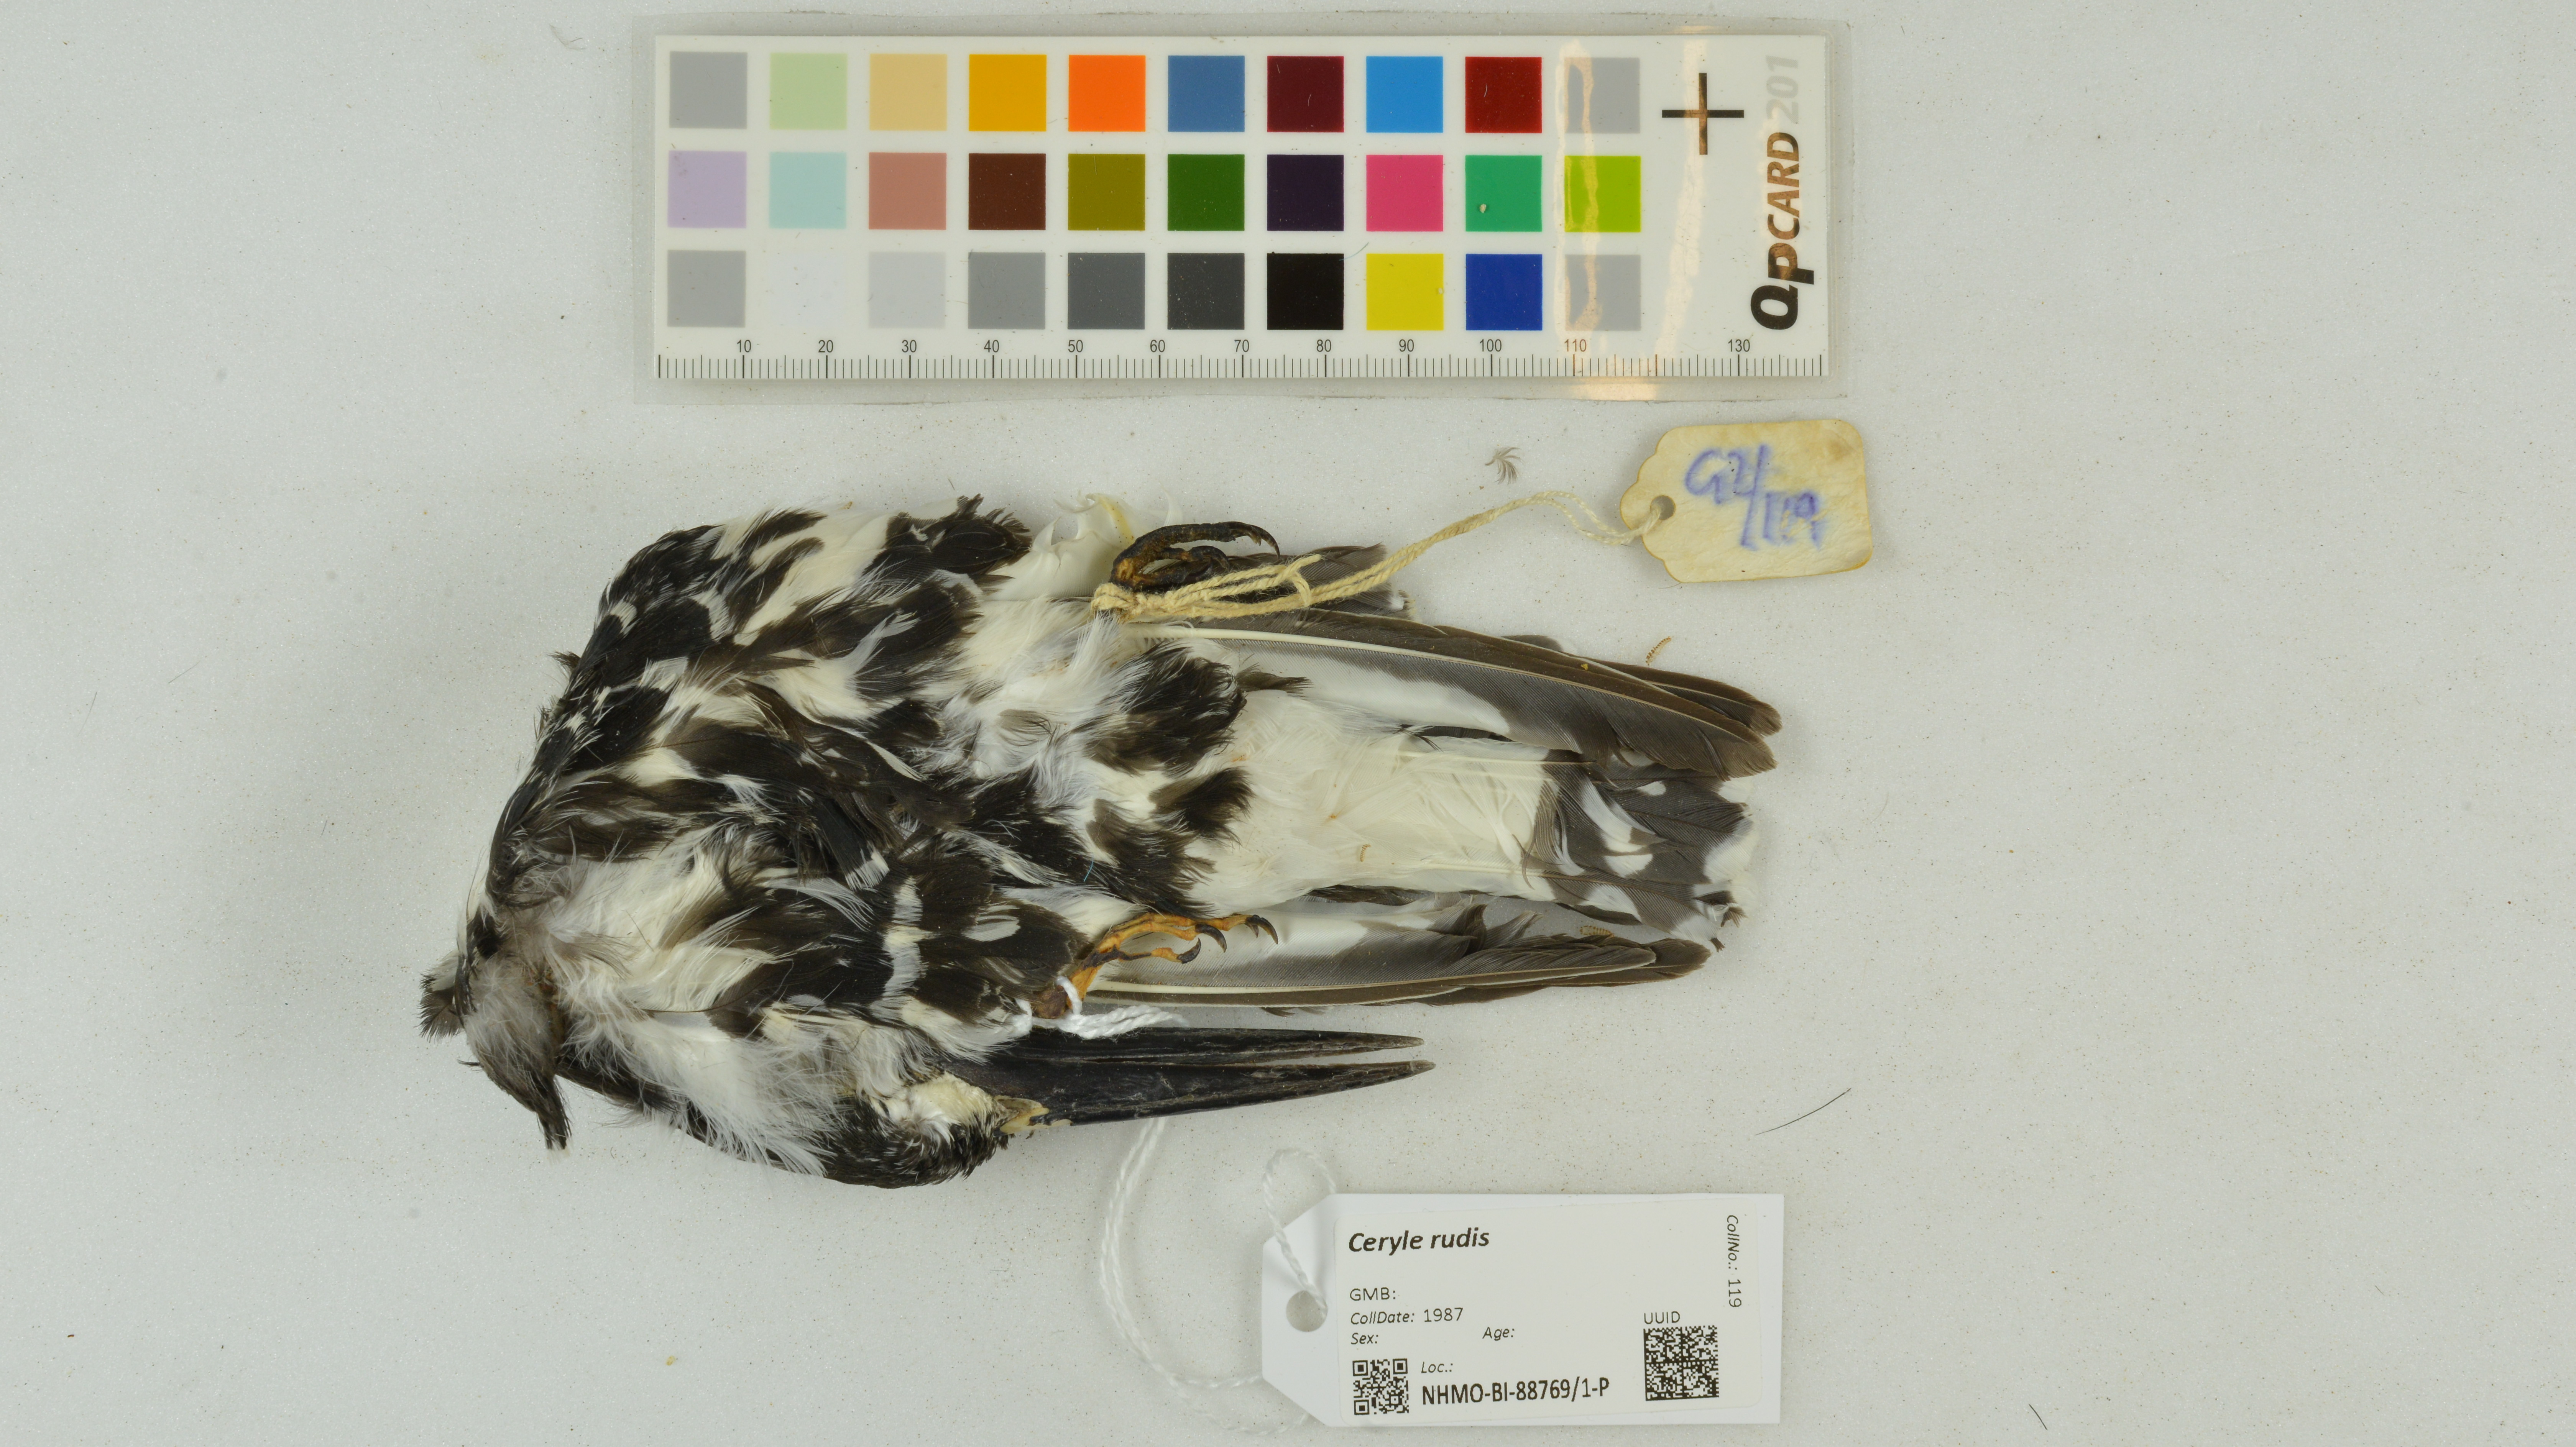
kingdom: Animalia
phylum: Chordata
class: Aves
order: Coraciiformes
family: Alcedinidae
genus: Ceryle
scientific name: Ceryle rudis
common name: Pied kingfisher
